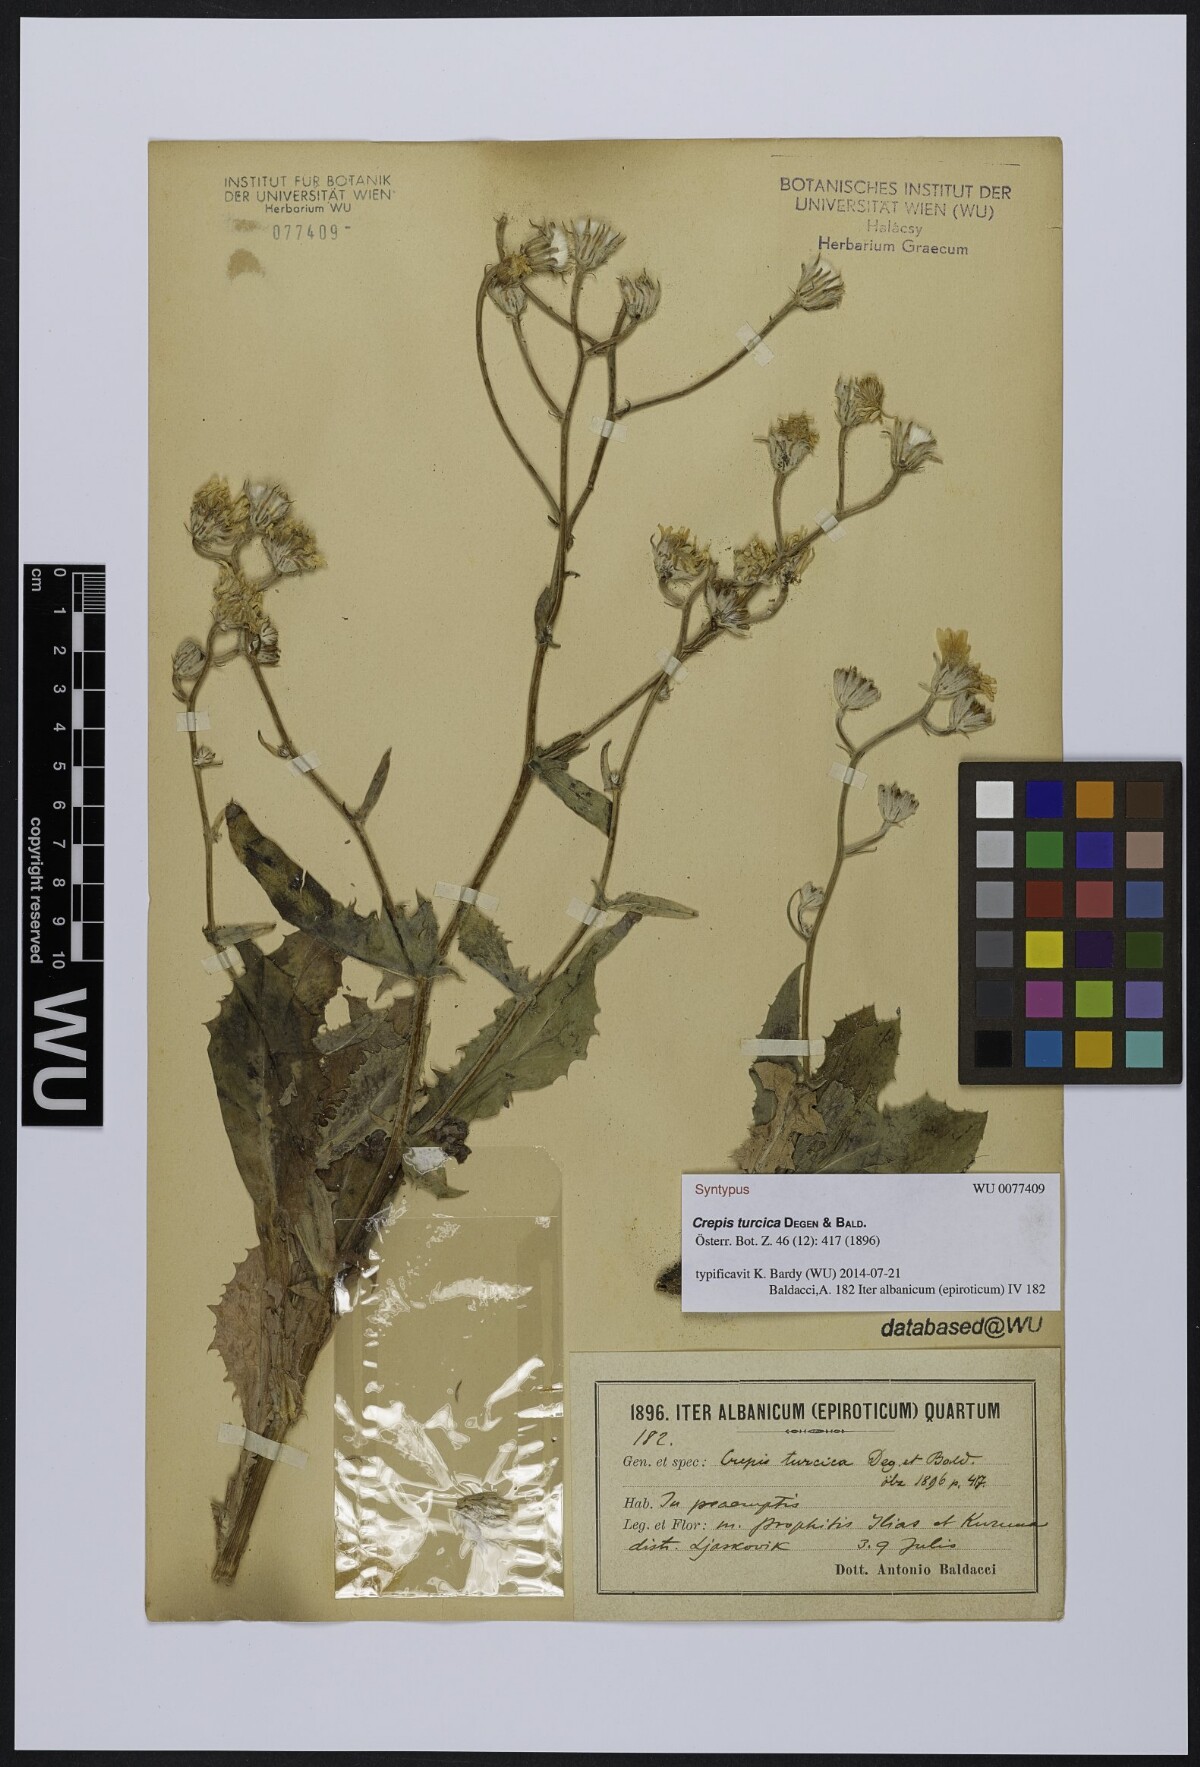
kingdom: Plantae
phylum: Tracheophyta
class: Magnoliopsida
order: Asterales
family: Asteraceae
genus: Crepis
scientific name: Crepis turcica
